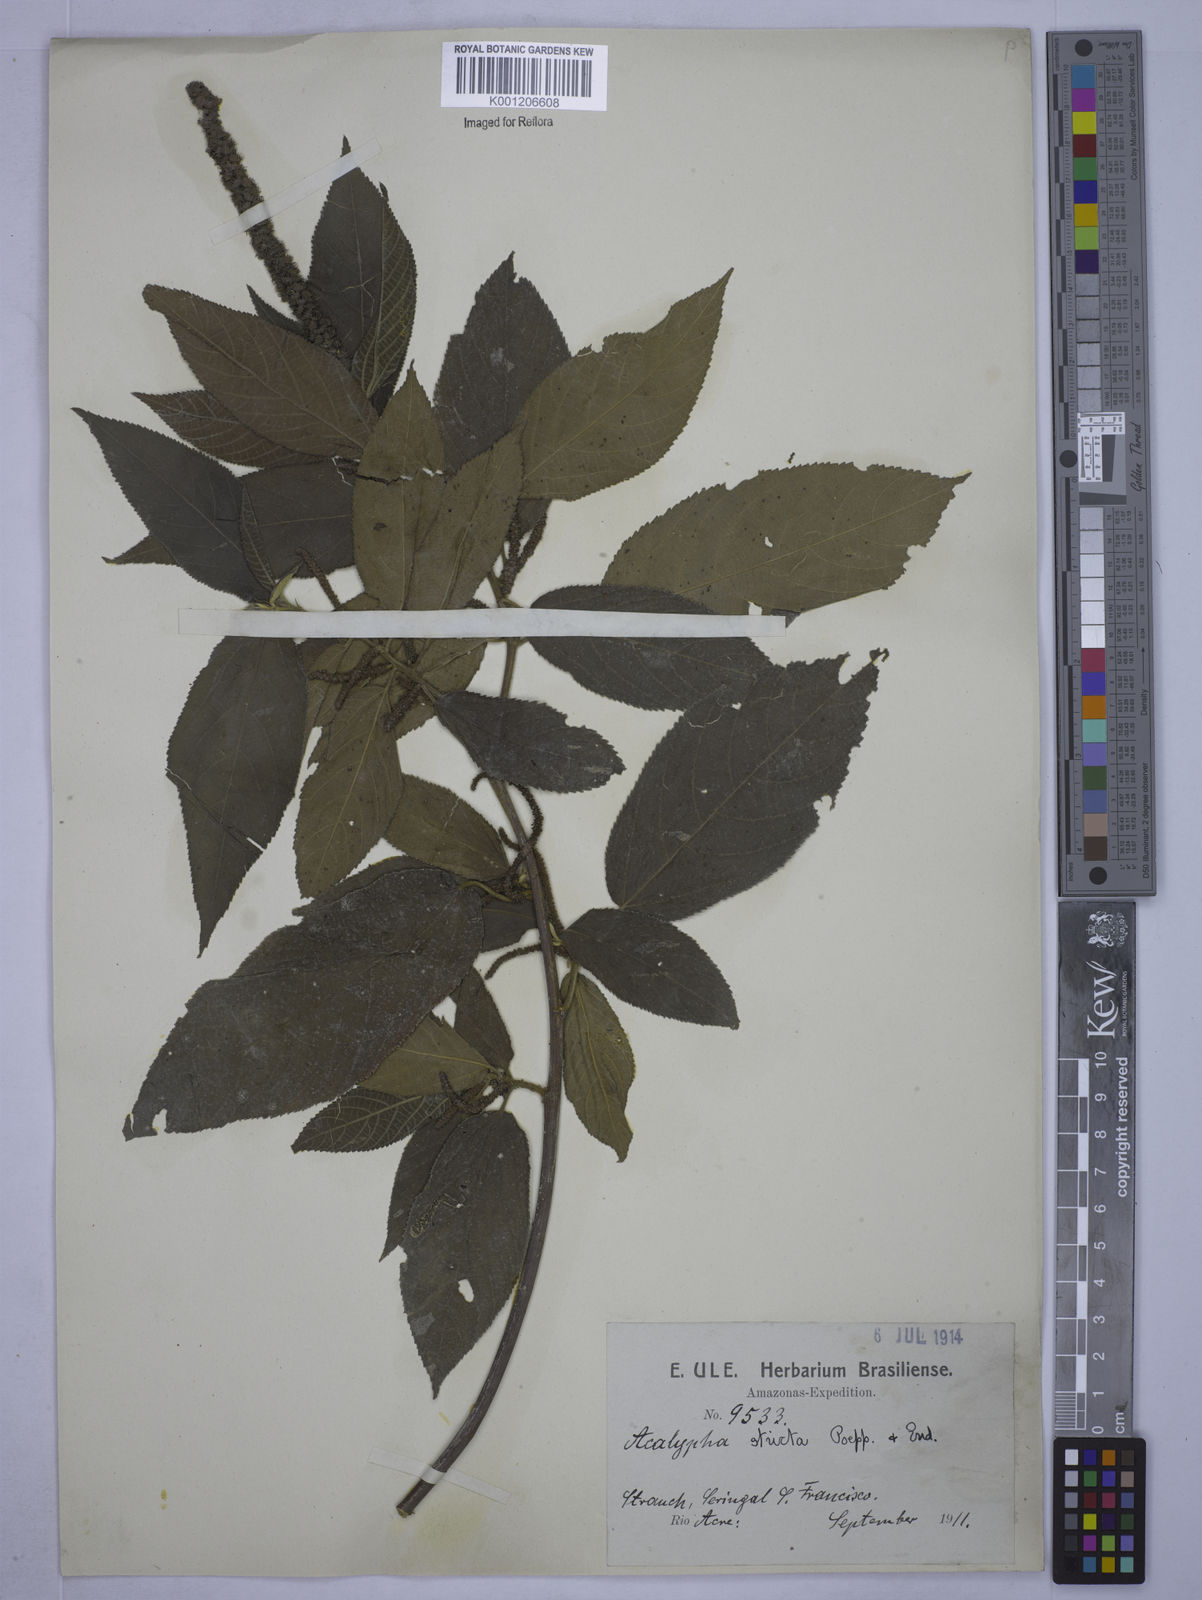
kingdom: Plantae
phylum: Tracheophyta
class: Magnoliopsida
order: Malpighiales
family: Euphorbiaceae
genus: Acalypha
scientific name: Acalypha stricta
